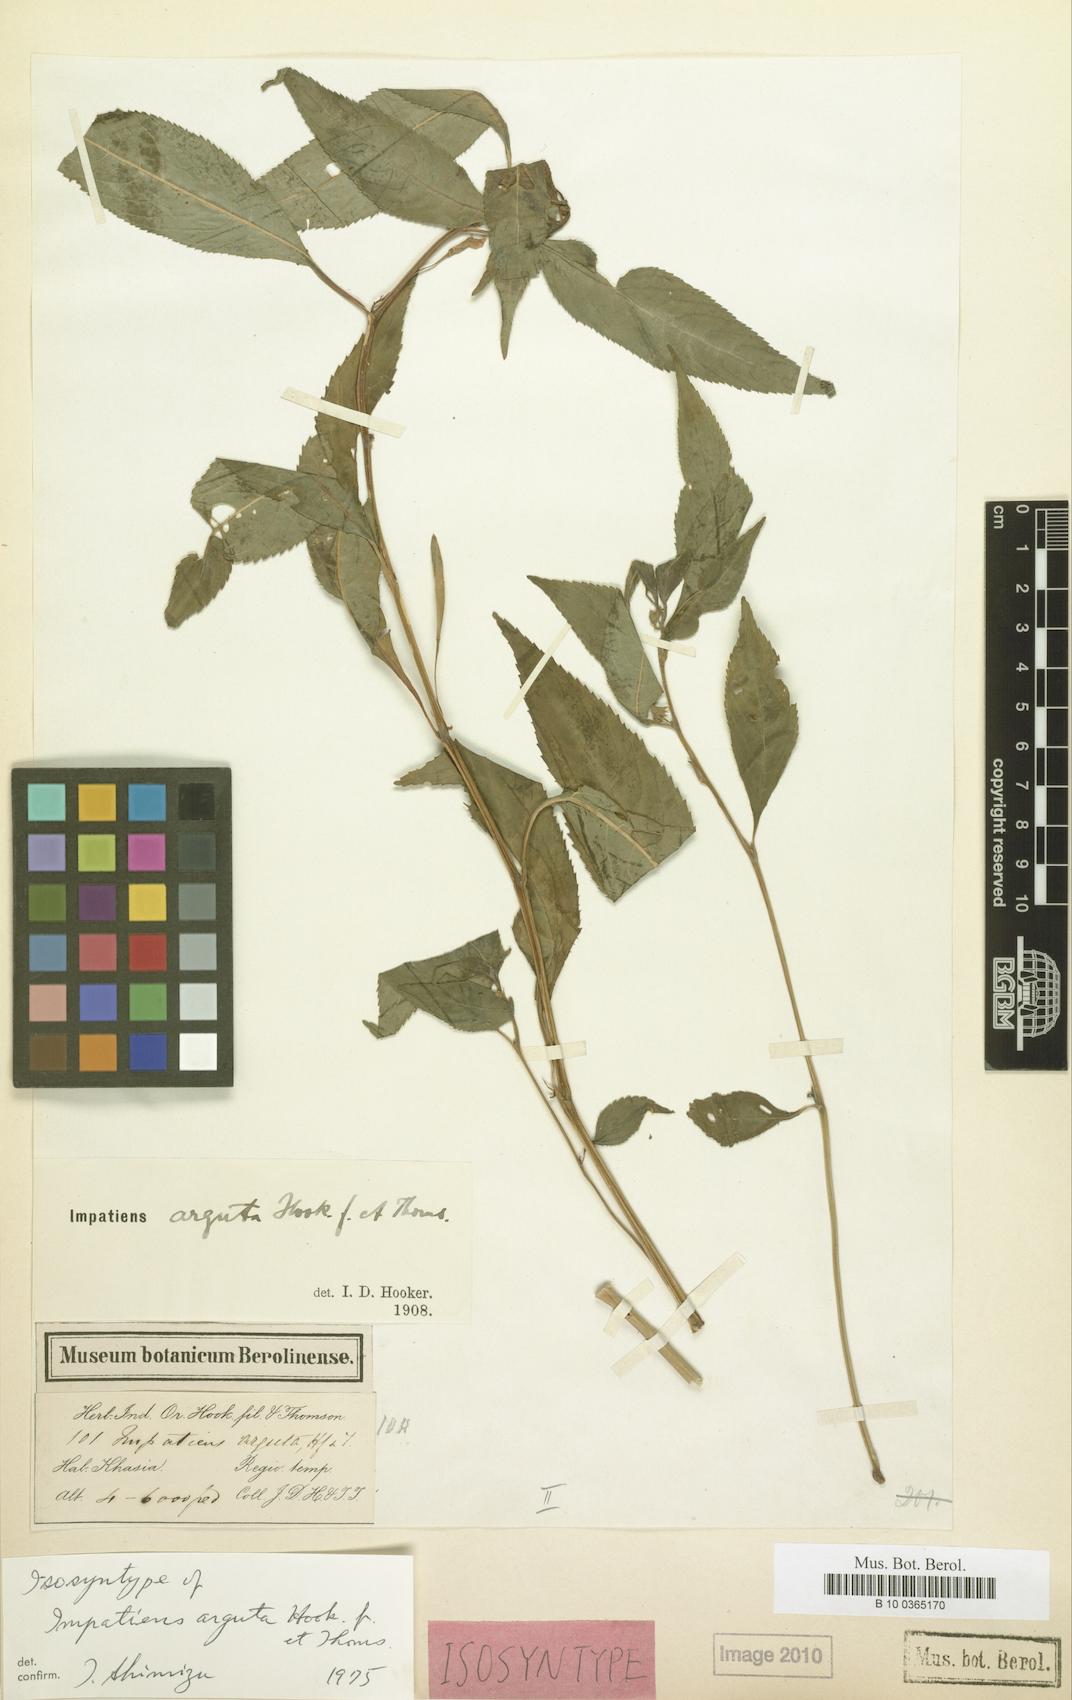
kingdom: Plantae
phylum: Tracheophyta
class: Magnoliopsida
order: Ericales
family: Balsaminaceae
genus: Impatiens
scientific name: Impatiens arguta
